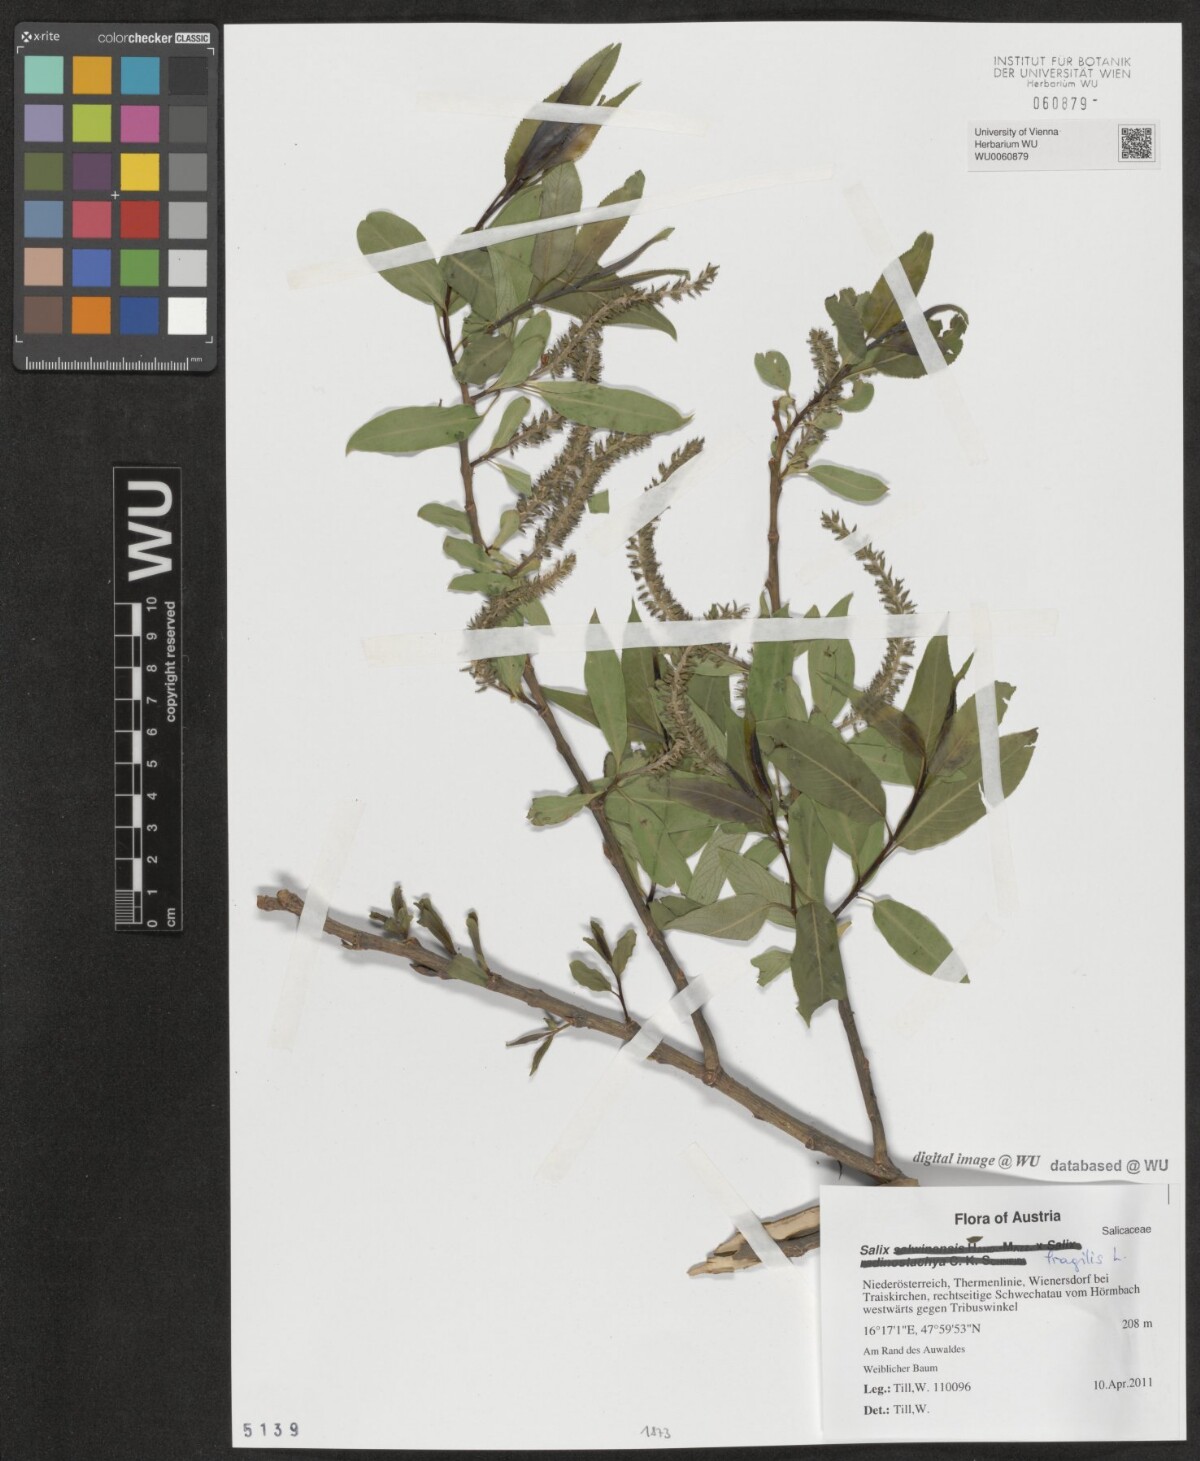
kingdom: Plantae
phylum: Tracheophyta
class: Magnoliopsida
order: Malpighiales
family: Salicaceae
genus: Salix
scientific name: Salix fragilis
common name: Crack willow
